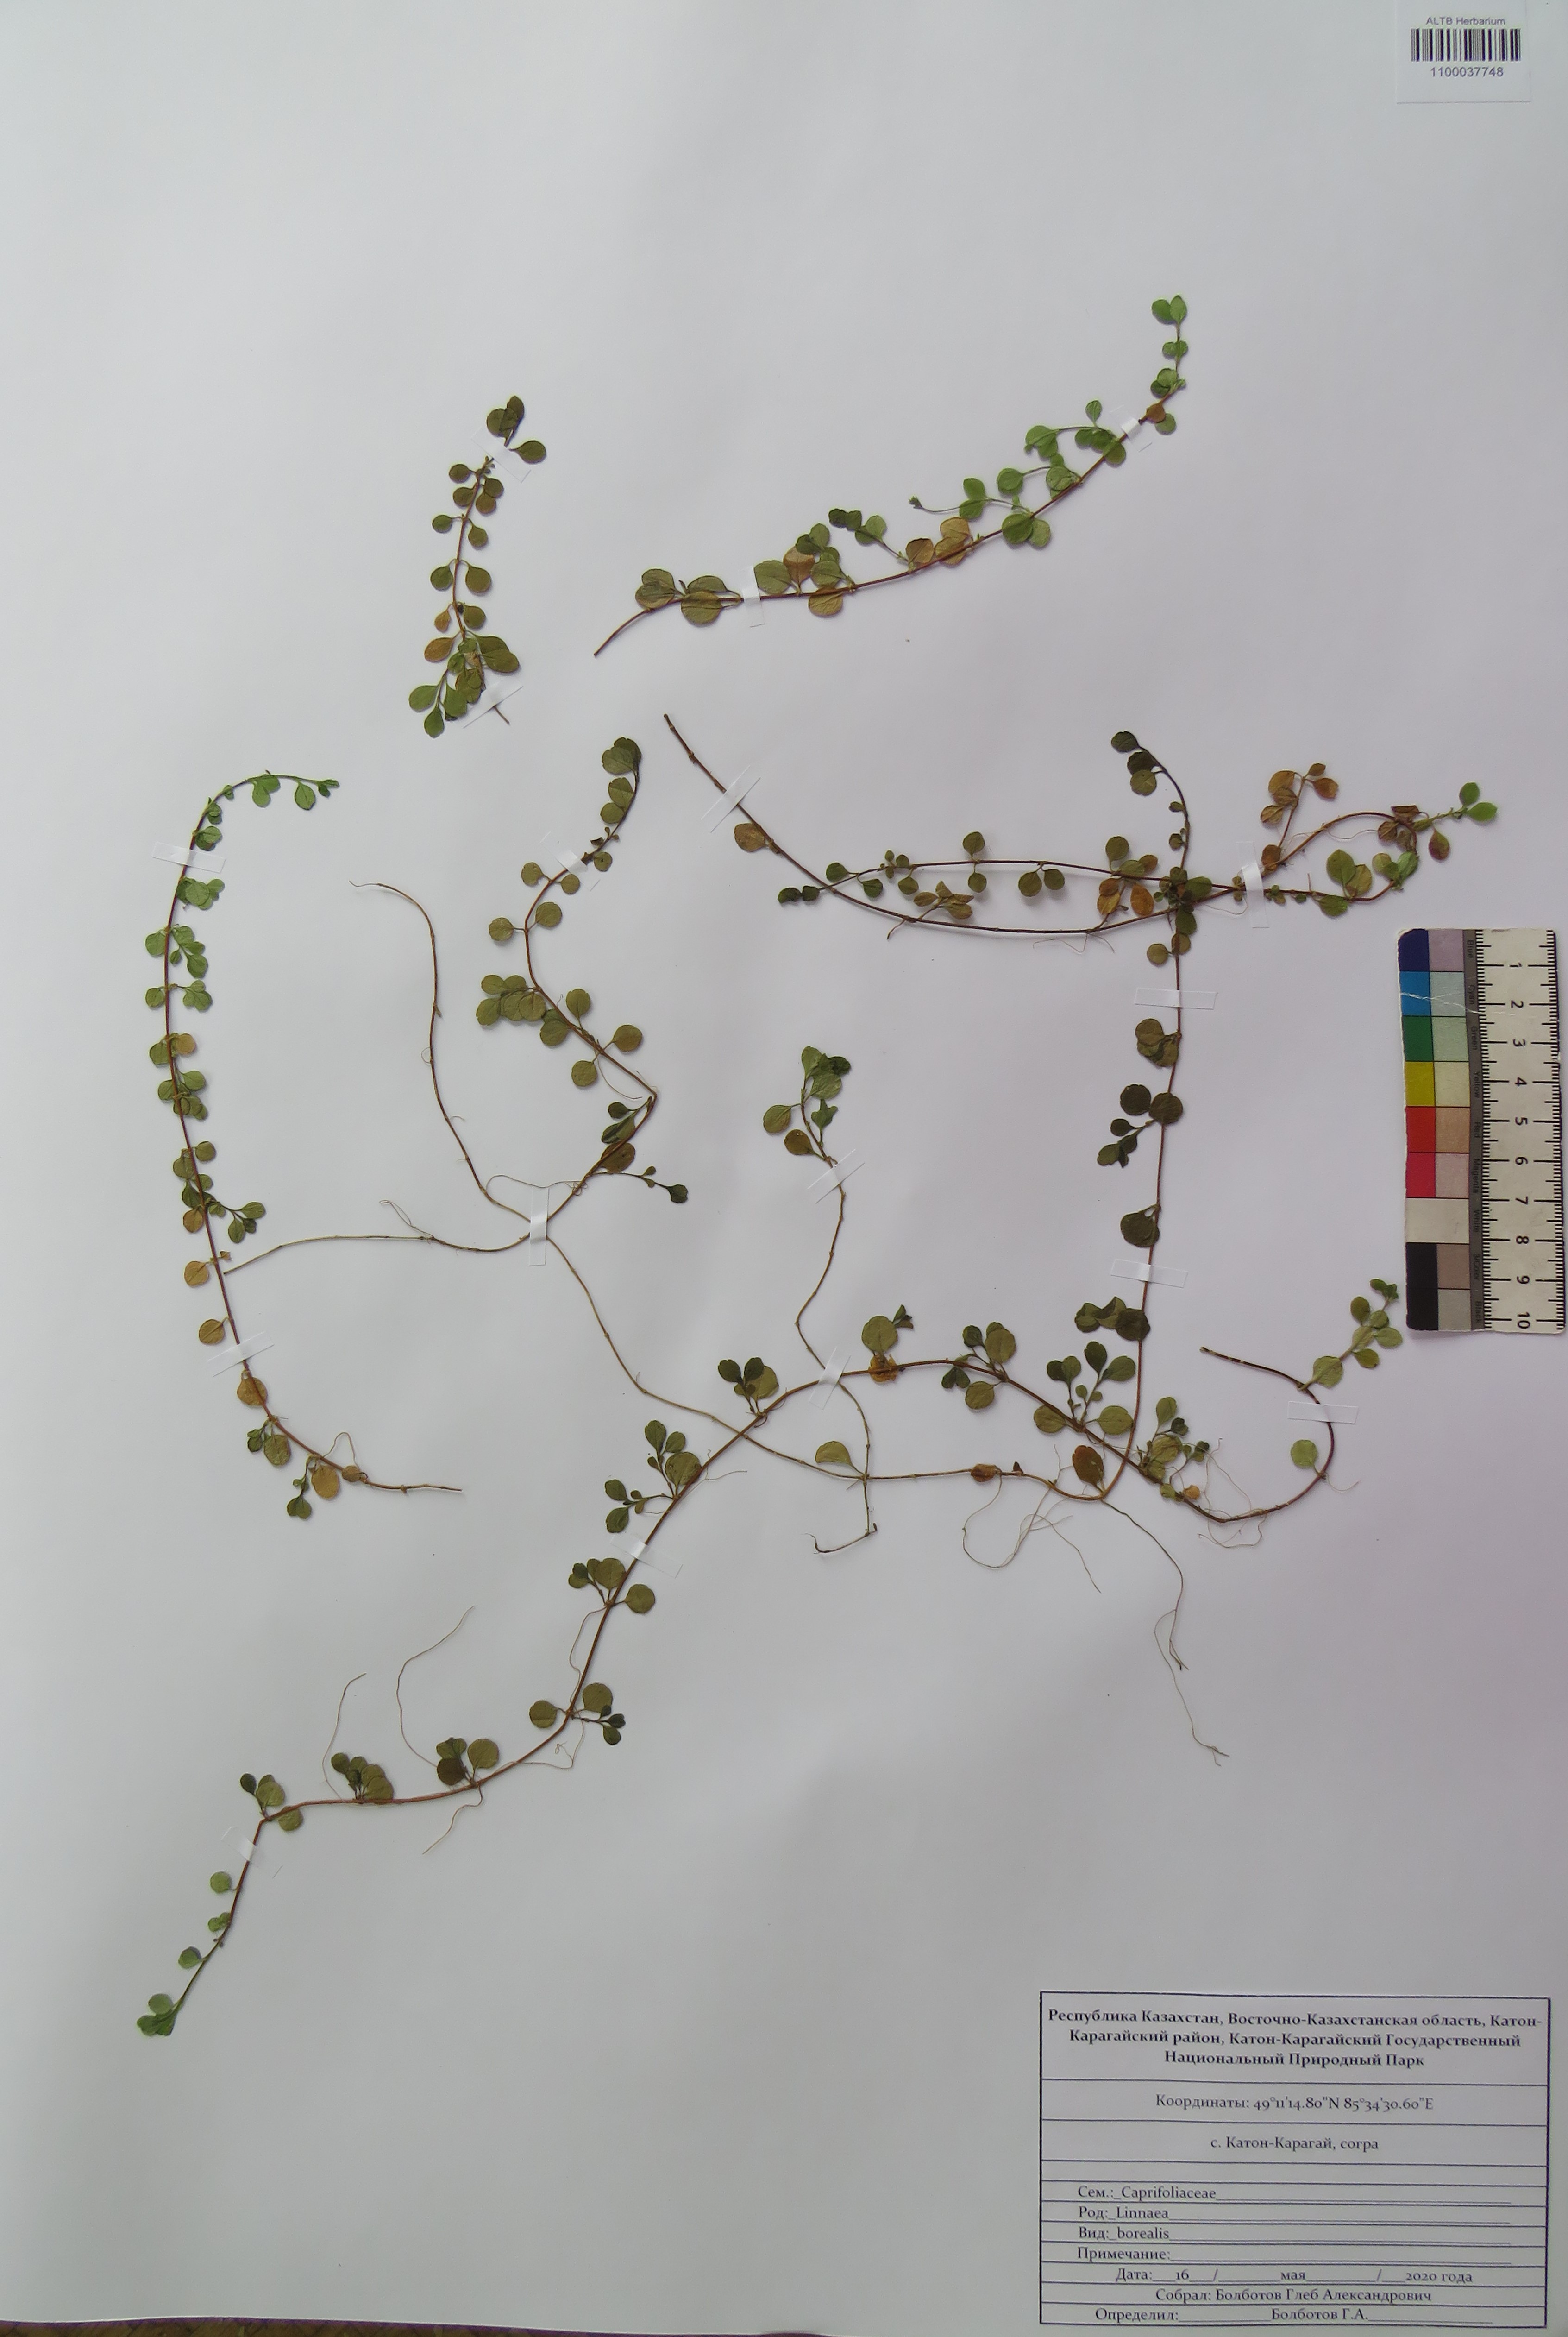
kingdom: Plantae
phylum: Tracheophyta
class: Magnoliopsida
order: Dipsacales
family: Caprifoliaceae
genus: Linnaea
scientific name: Linnaea borealis
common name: Twinflower
